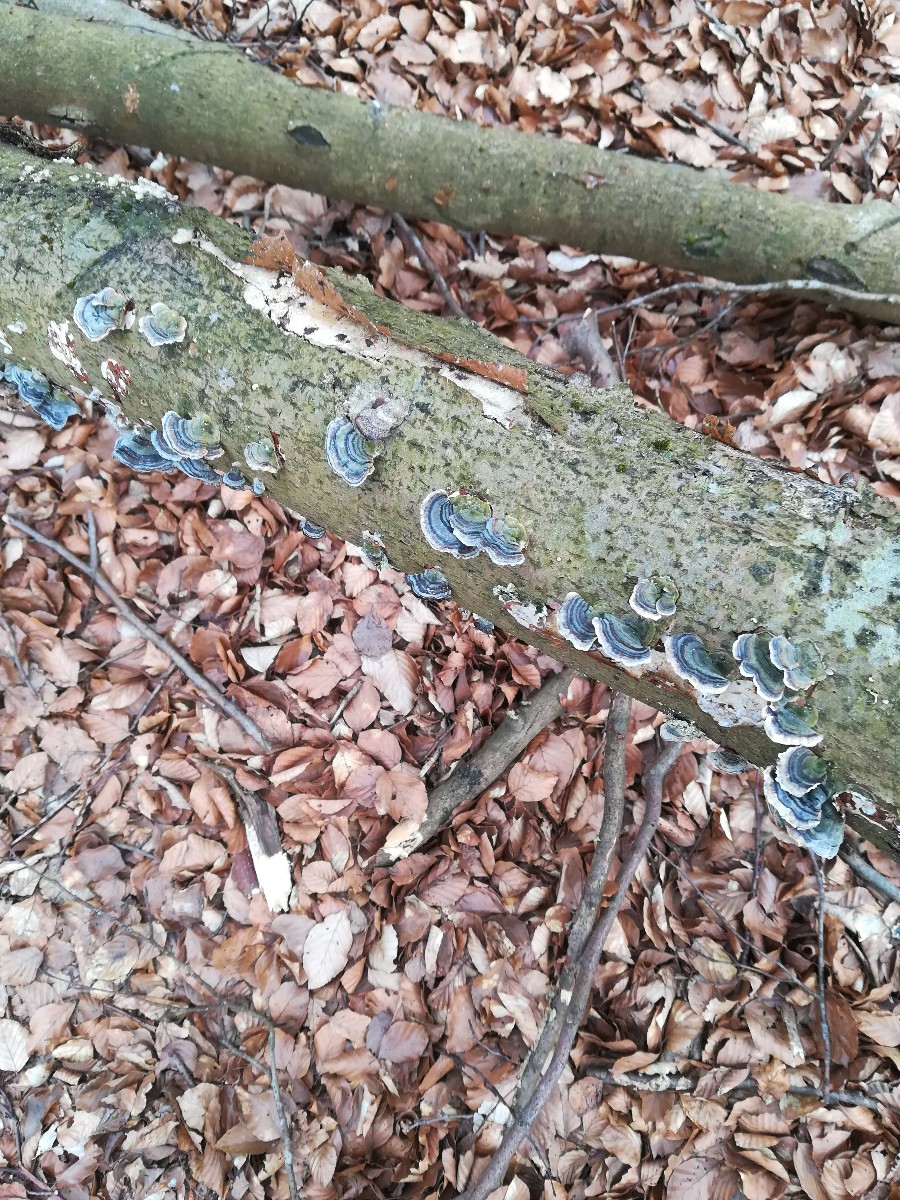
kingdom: Fungi
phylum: Basidiomycota
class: Agaricomycetes
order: Polyporales
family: Polyporaceae
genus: Trametes
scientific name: Trametes versicolor
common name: broget læderporesvamp
